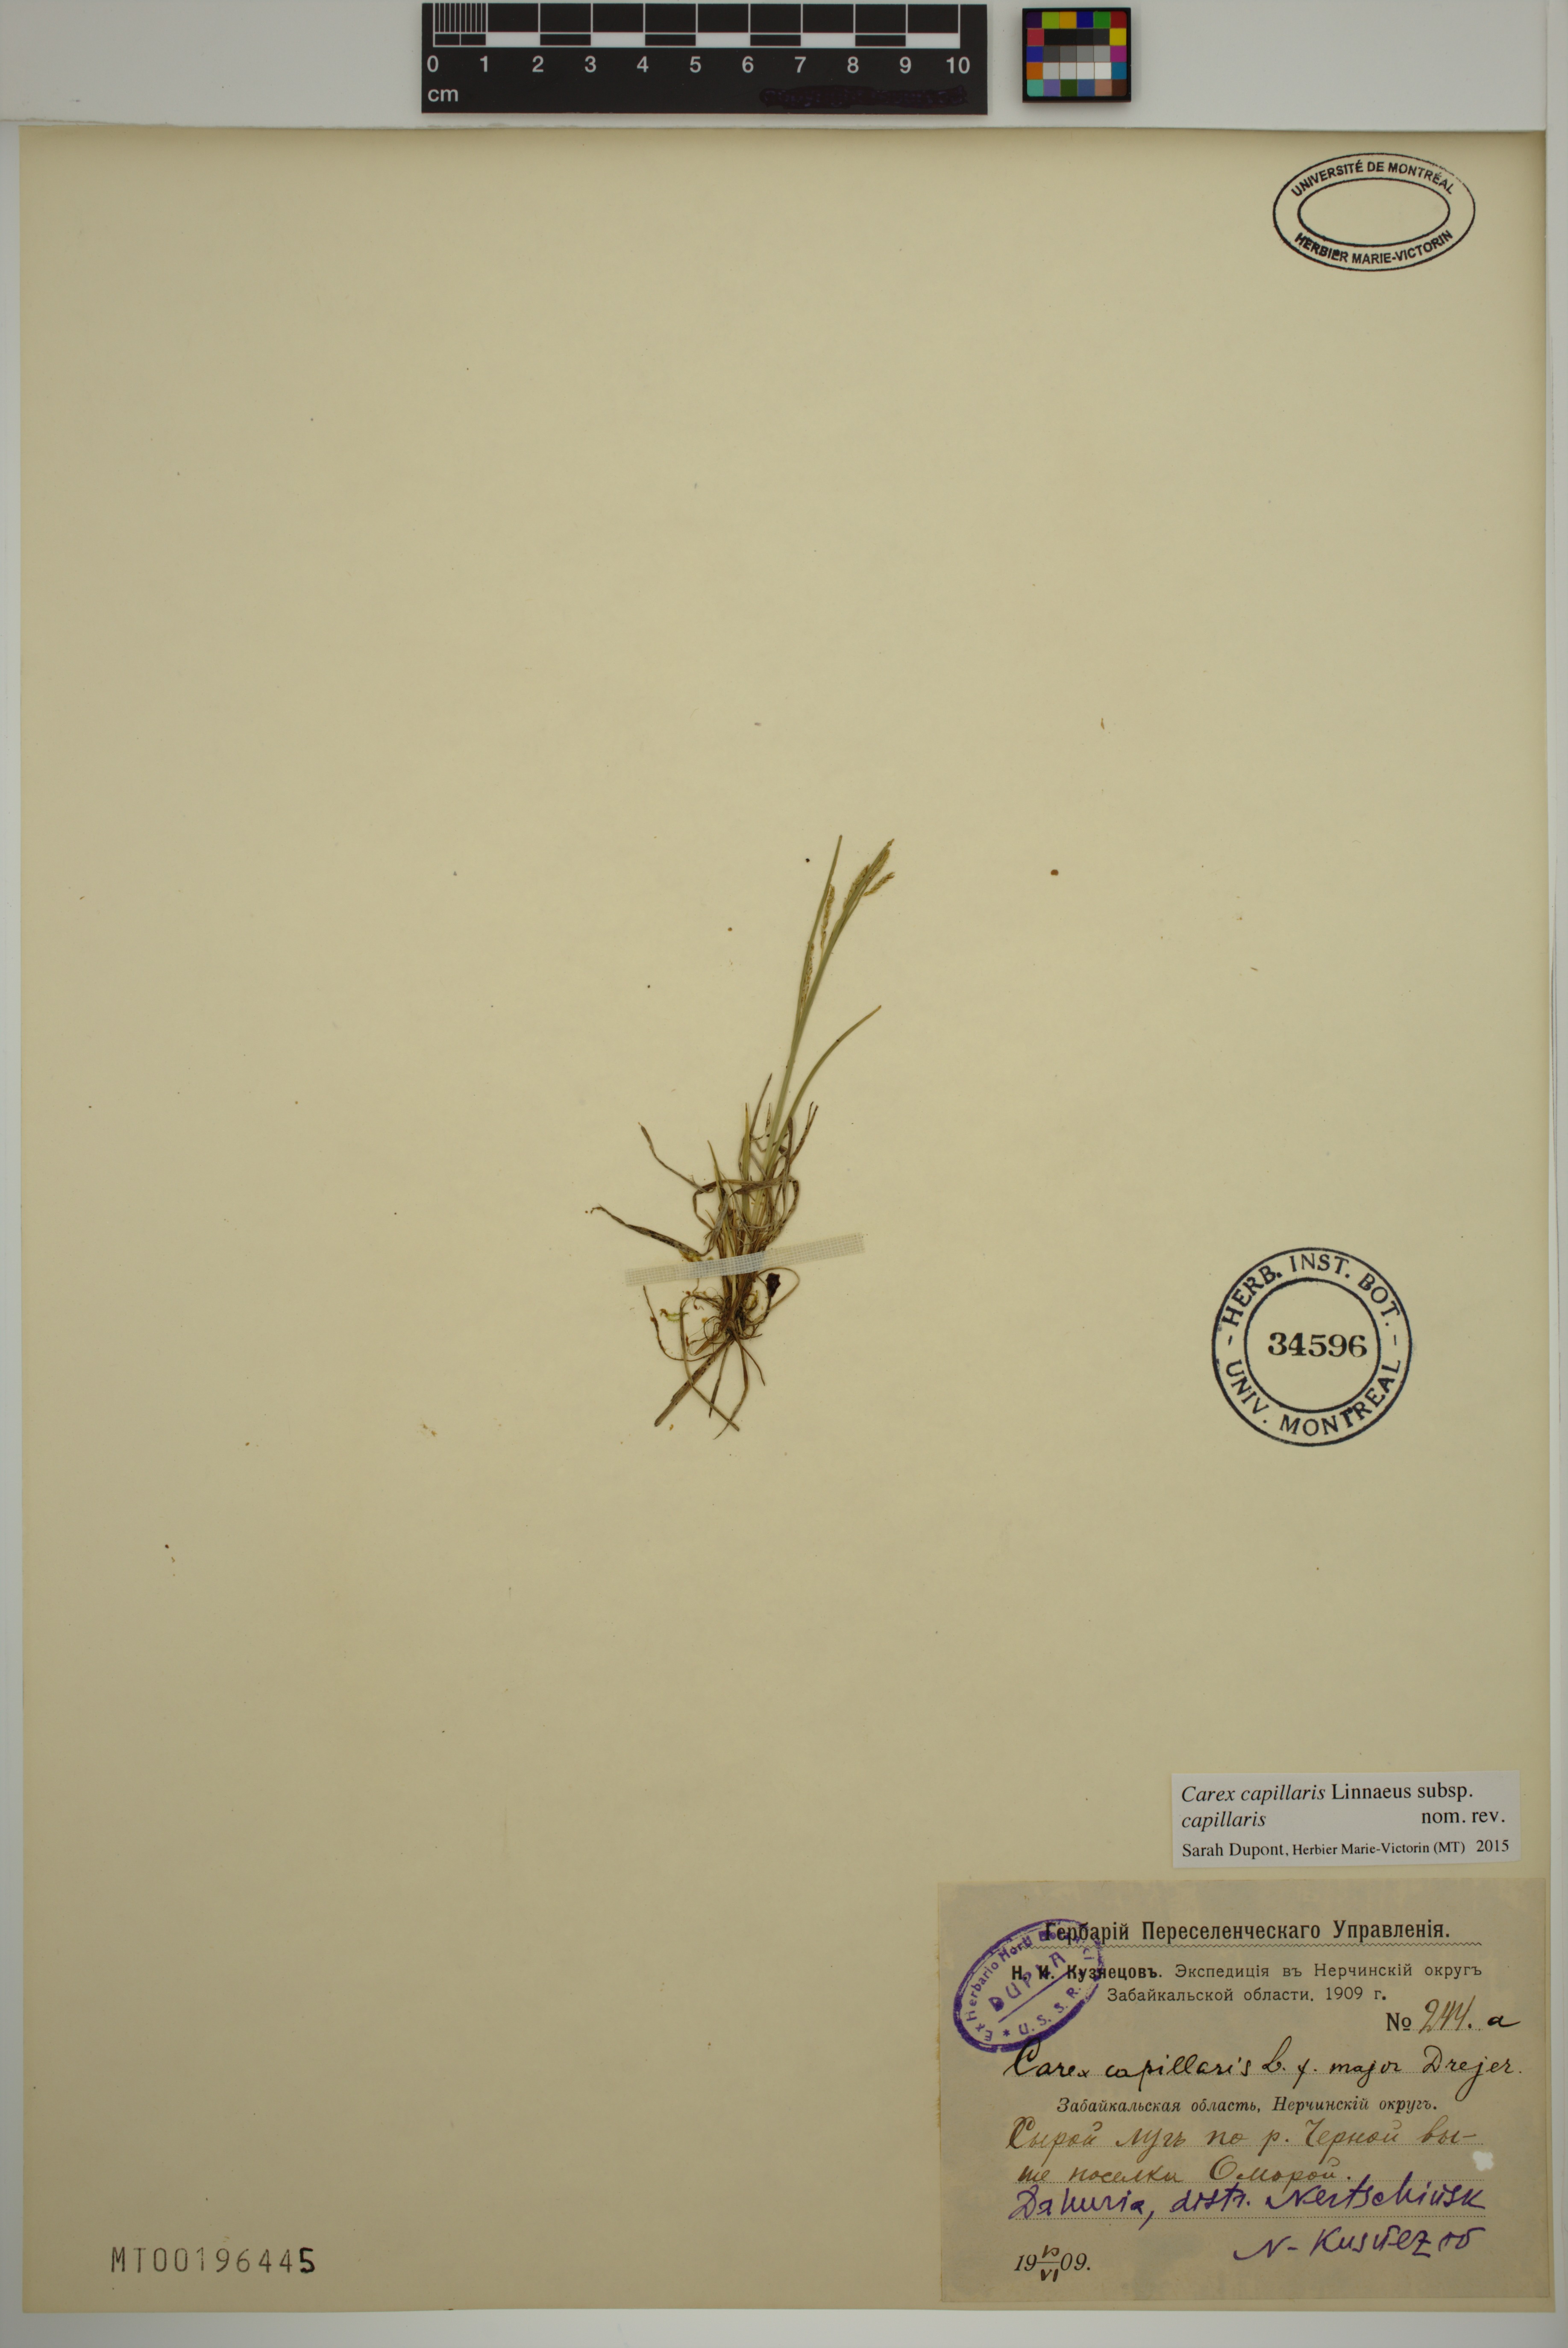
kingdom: Plantae
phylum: Tracheophyta
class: Liliopsida
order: Poales
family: Cyperaceae
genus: Carex
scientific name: Carex capillaris
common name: Hair sedge
